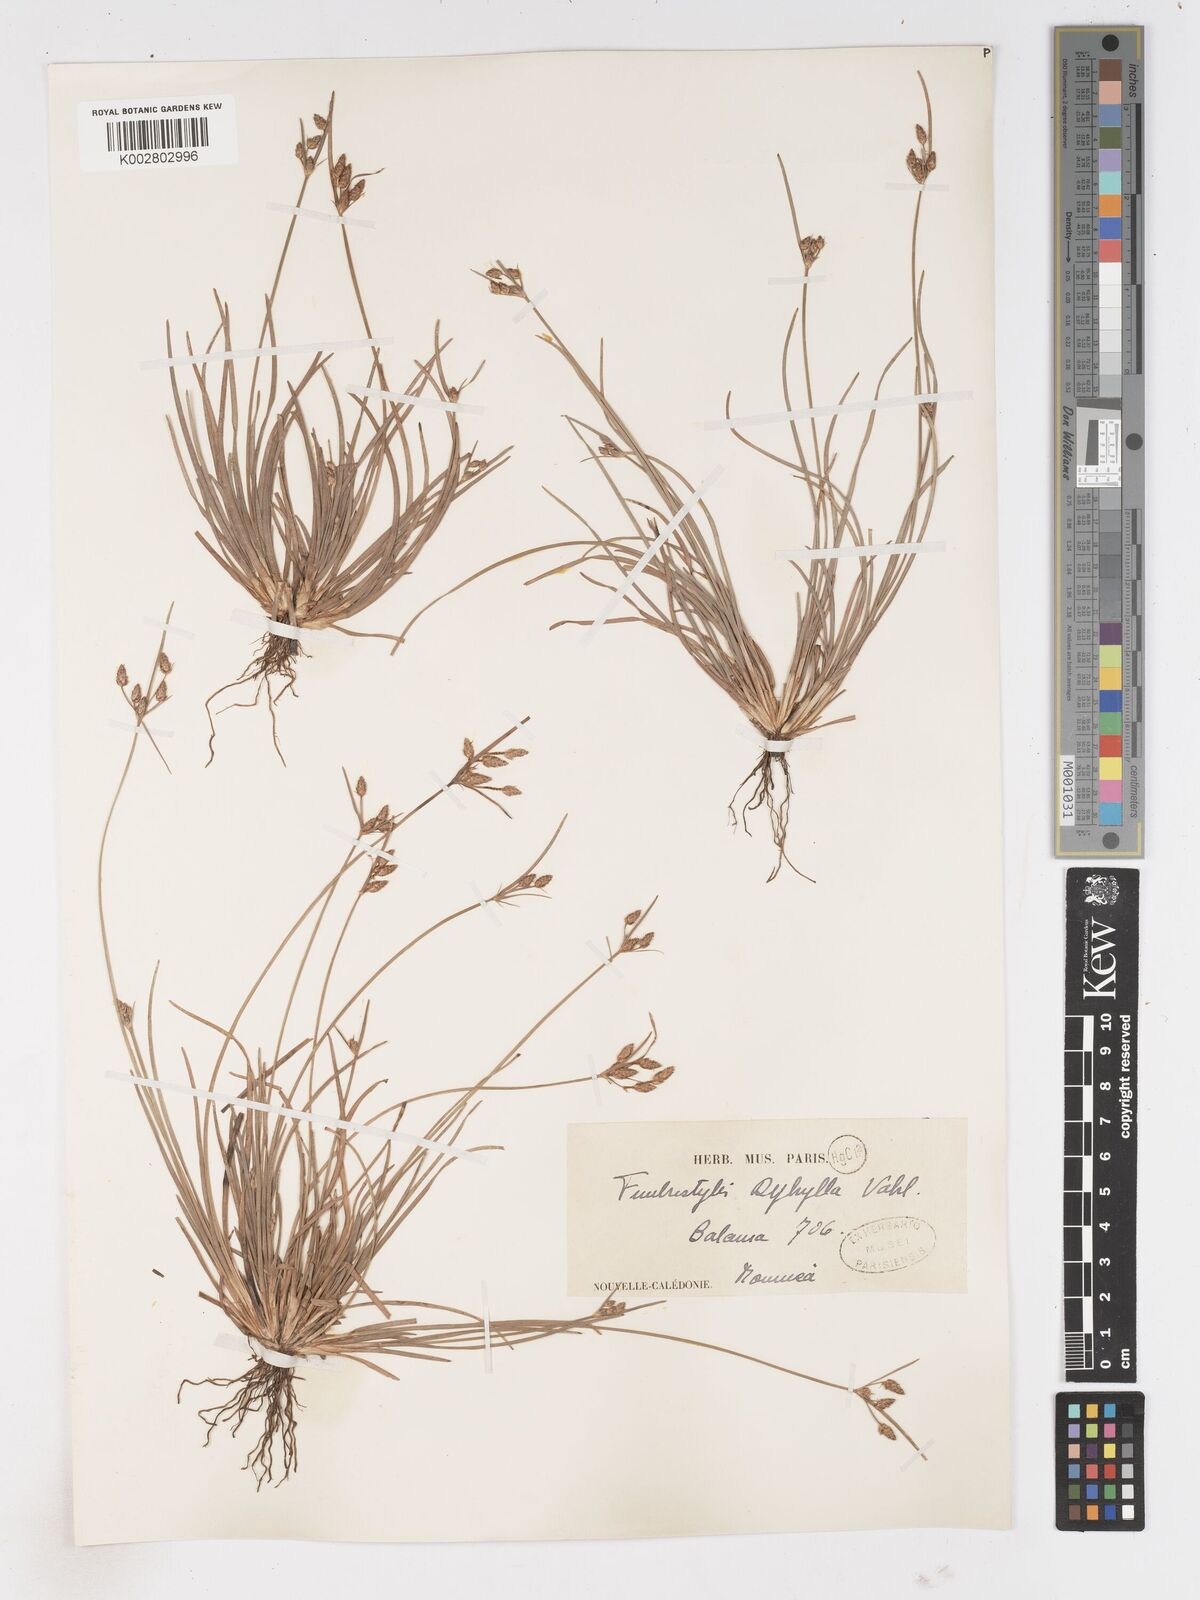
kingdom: Plantae
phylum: Tracheophyta
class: Liliopsida
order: Poales
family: Cyperaceae
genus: Fimbristylis
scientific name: Fimbristylis dichotoma
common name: Forked fimbry
